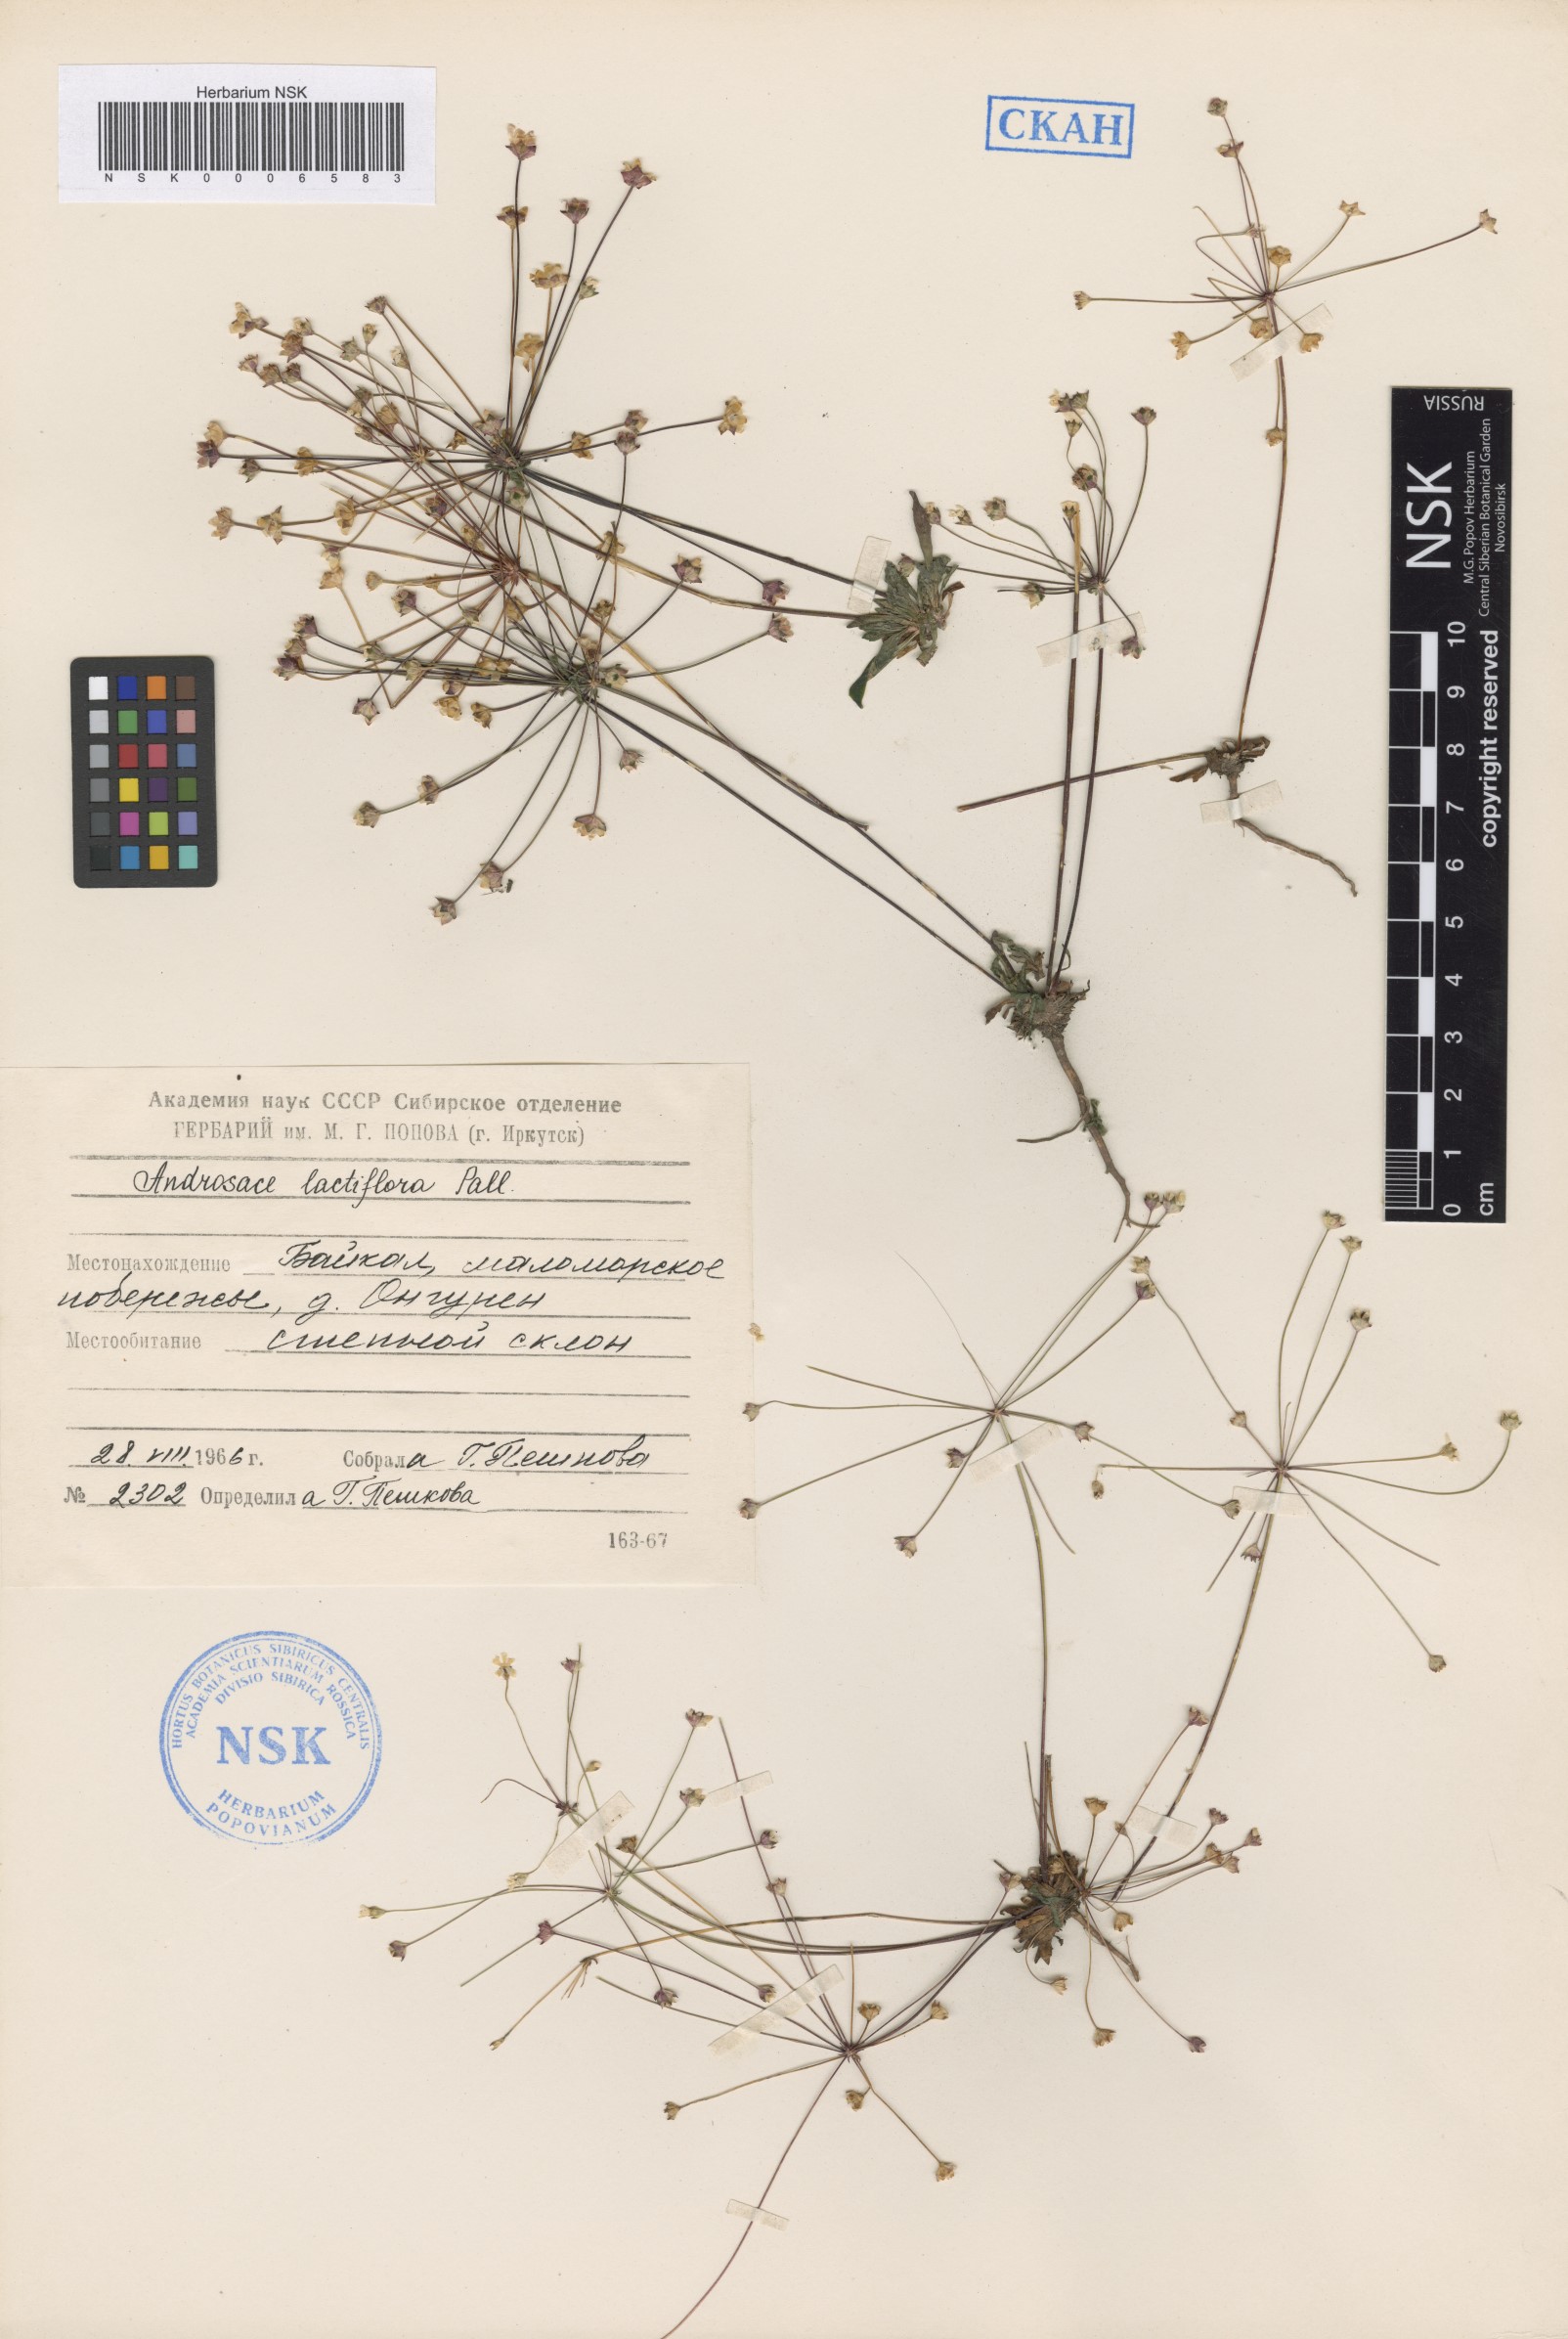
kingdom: Plantae
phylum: Tracheophyta
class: Magnoliopsida
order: Ericales
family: Primulaceae
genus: Androsace
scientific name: Androsace lactiflora
